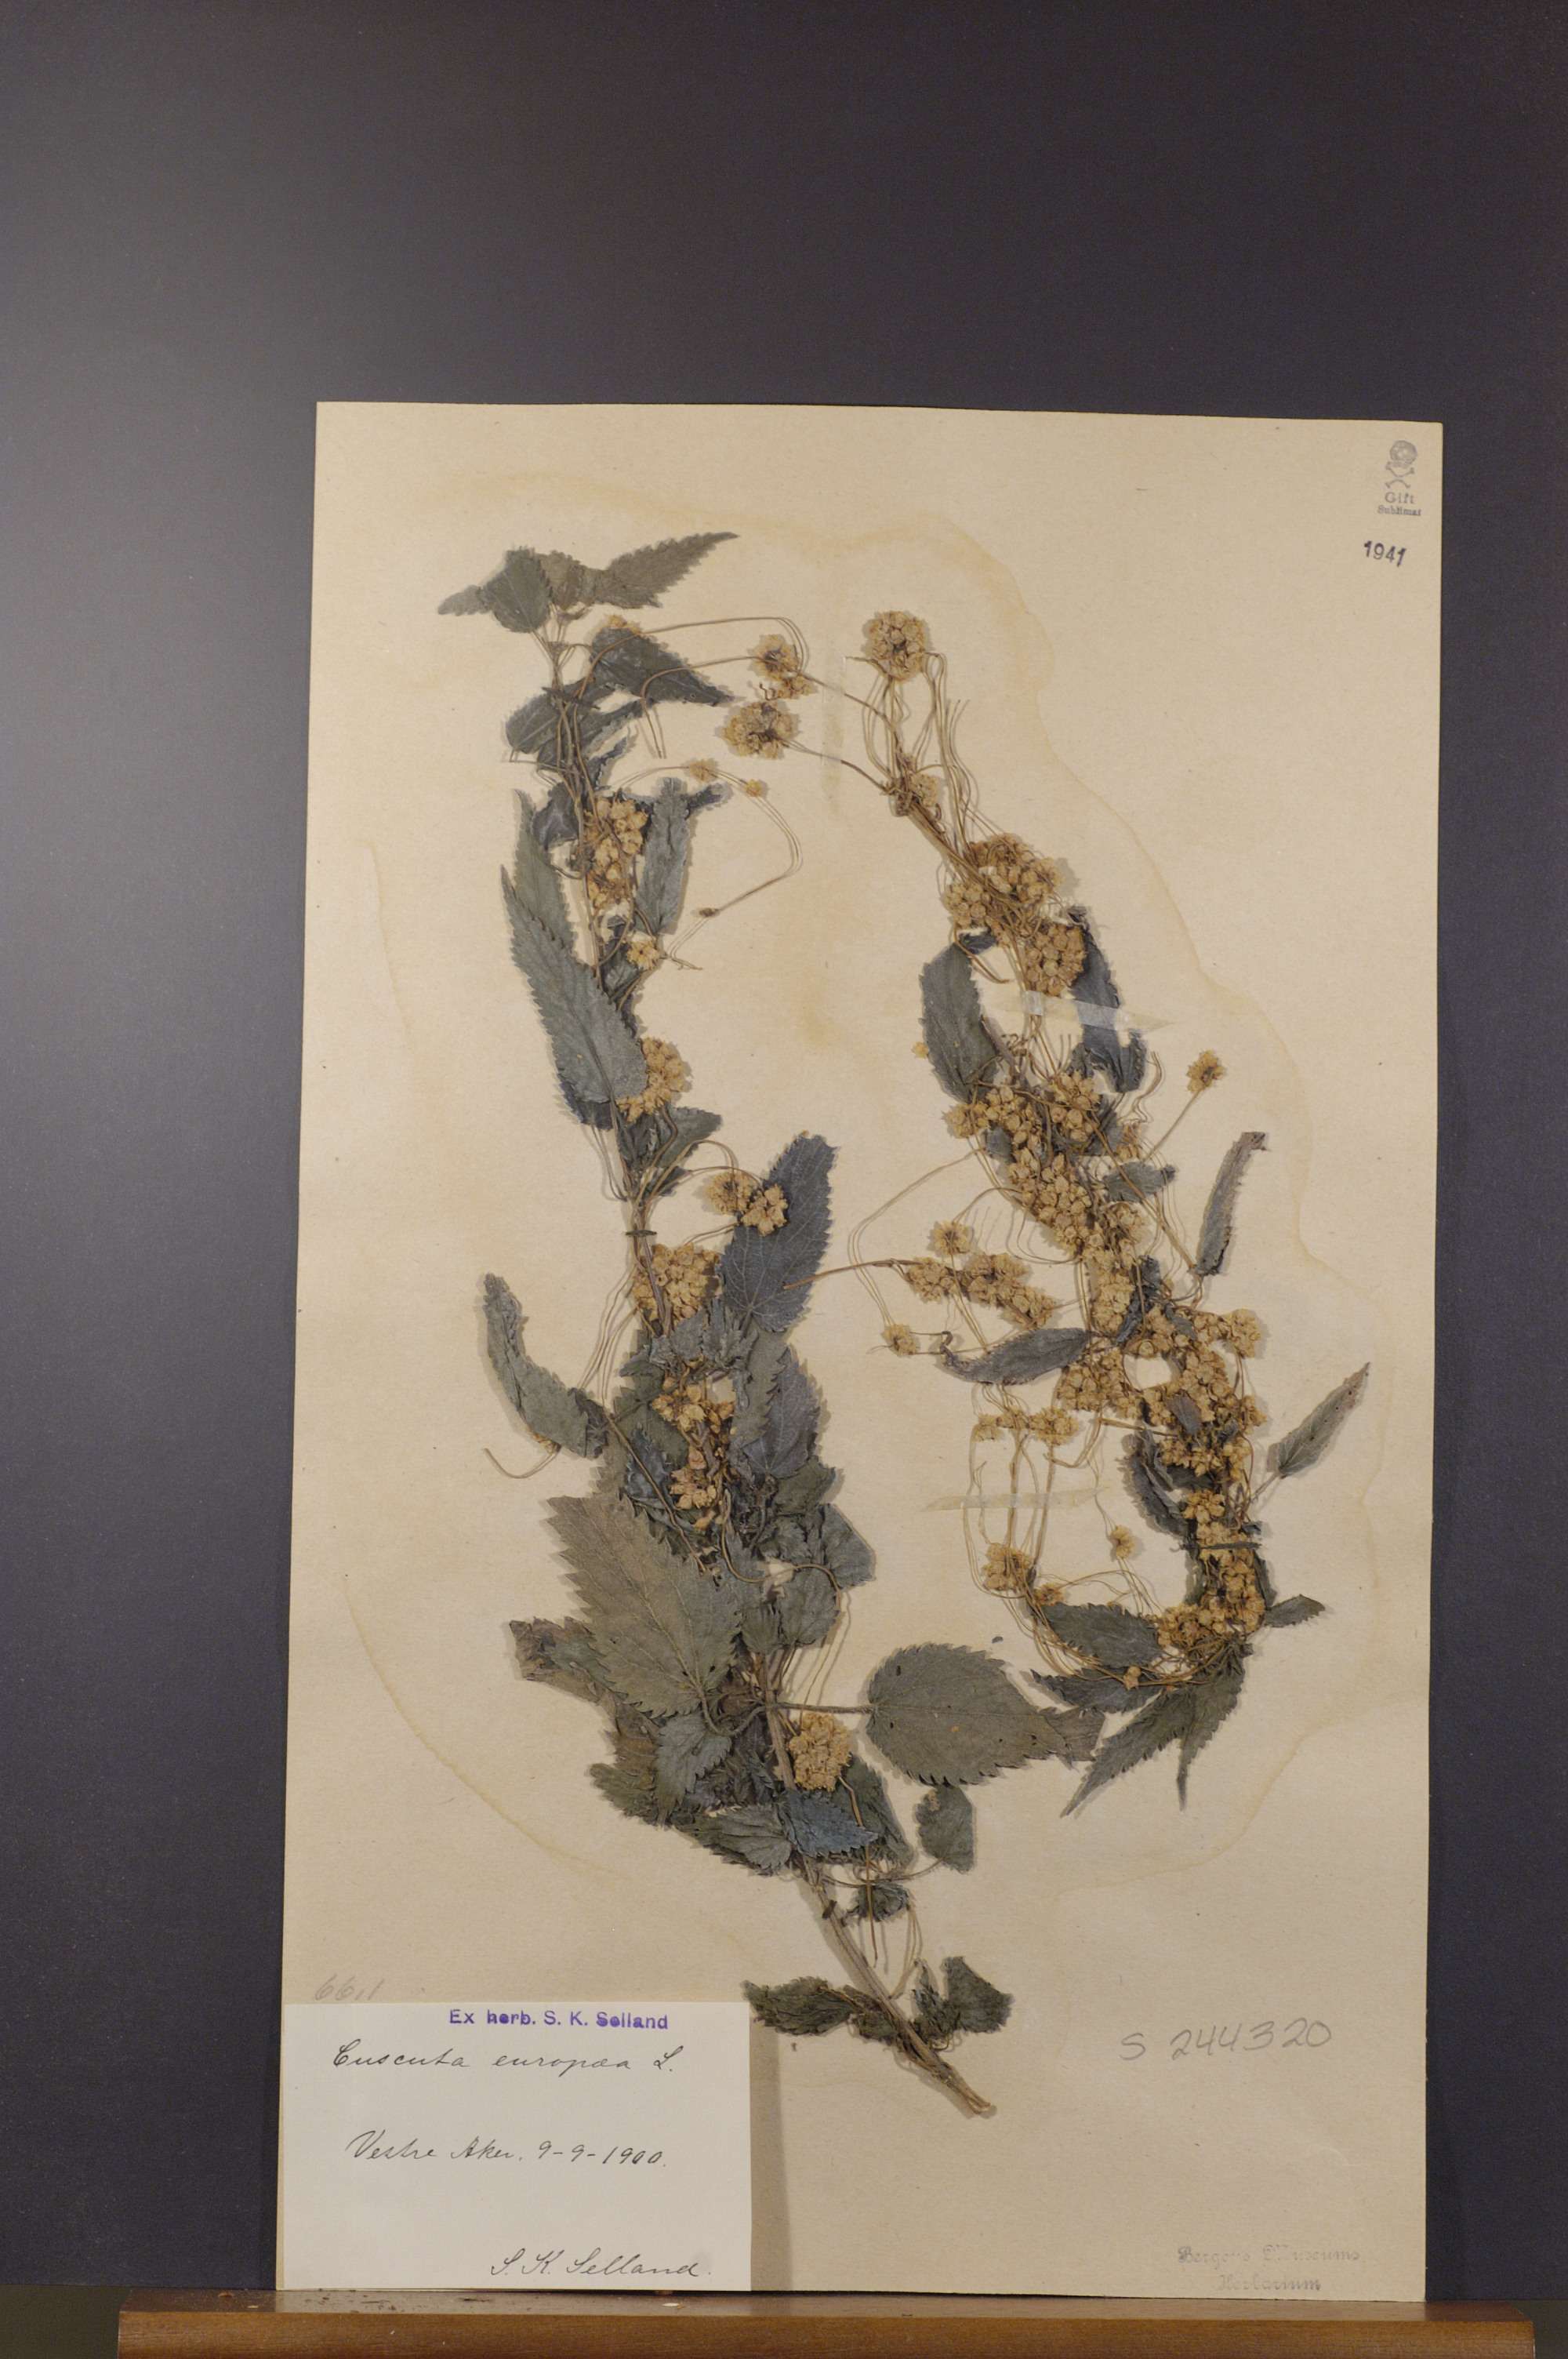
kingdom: Plantae
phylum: Tracheophyta
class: Magnoliopsida
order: Solanales
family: Convolvulaceae
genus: Cuscuta
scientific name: Cuscuta europaea
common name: Greater dodder
